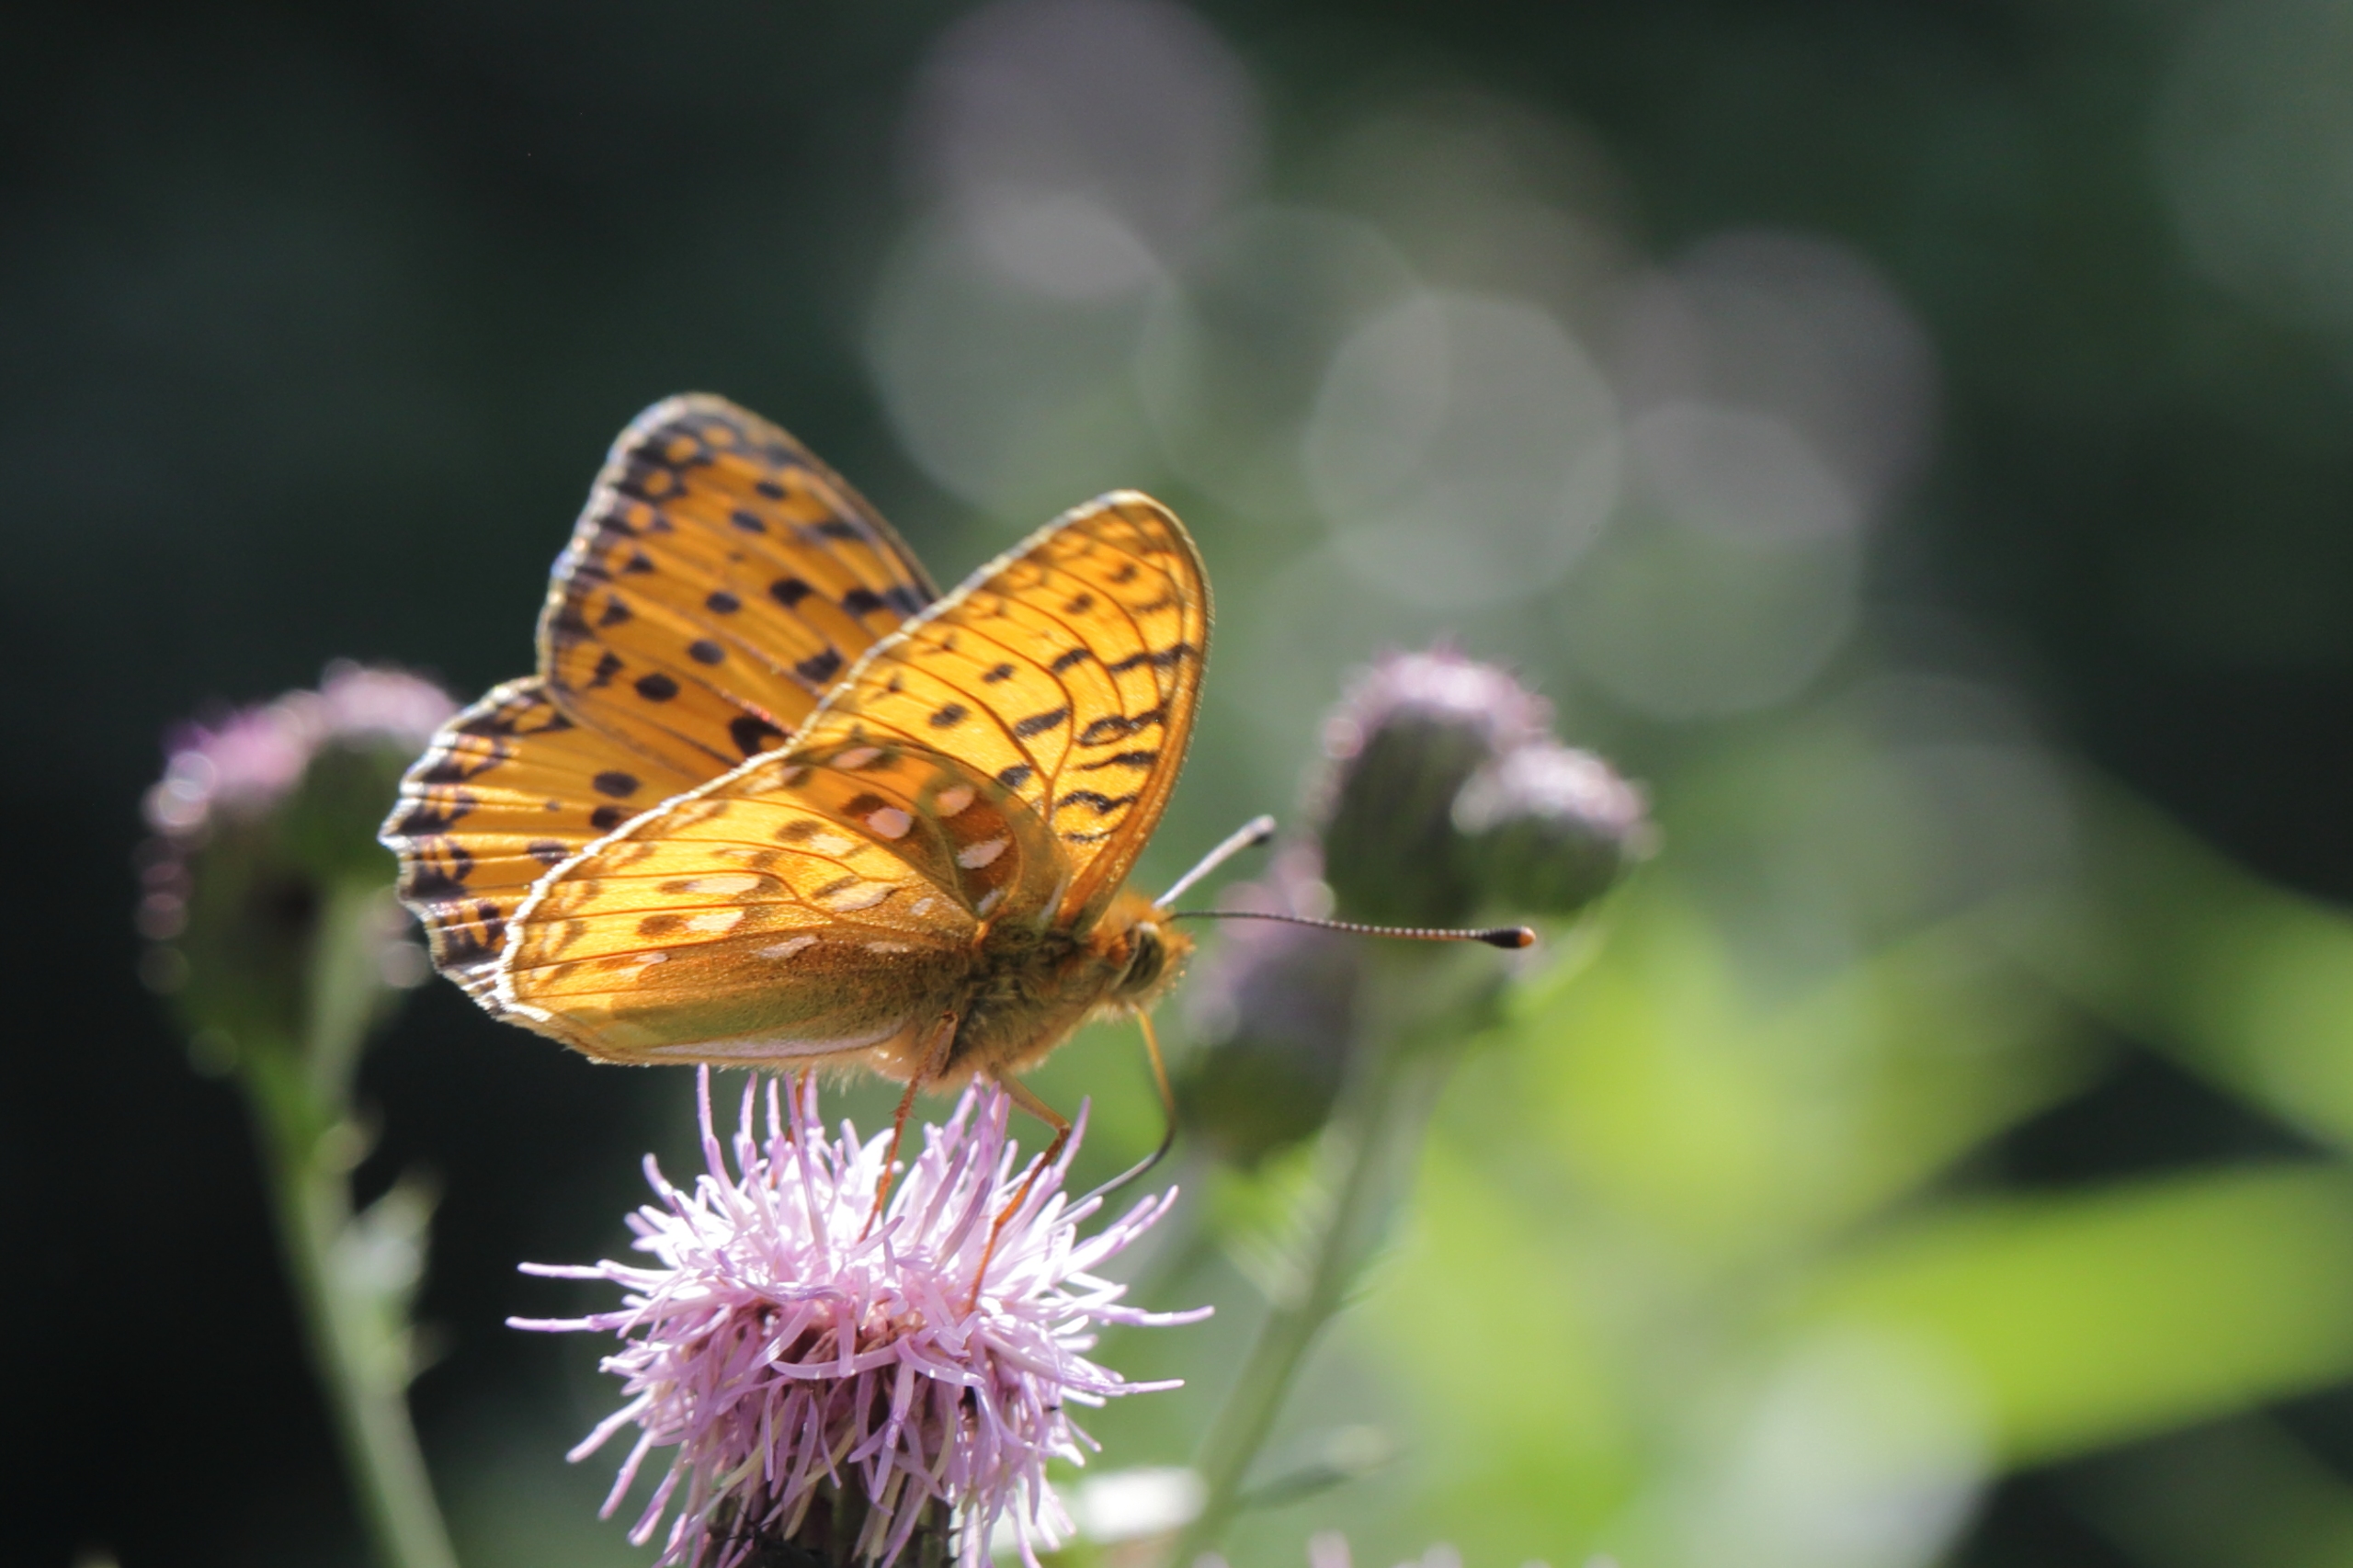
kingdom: Animalia
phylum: Arthropoda
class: Insecta
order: Lepidoptera
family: Nymphalidae
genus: Speyeria
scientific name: Speyeria aglaja
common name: Markperlemorsommerfugl
